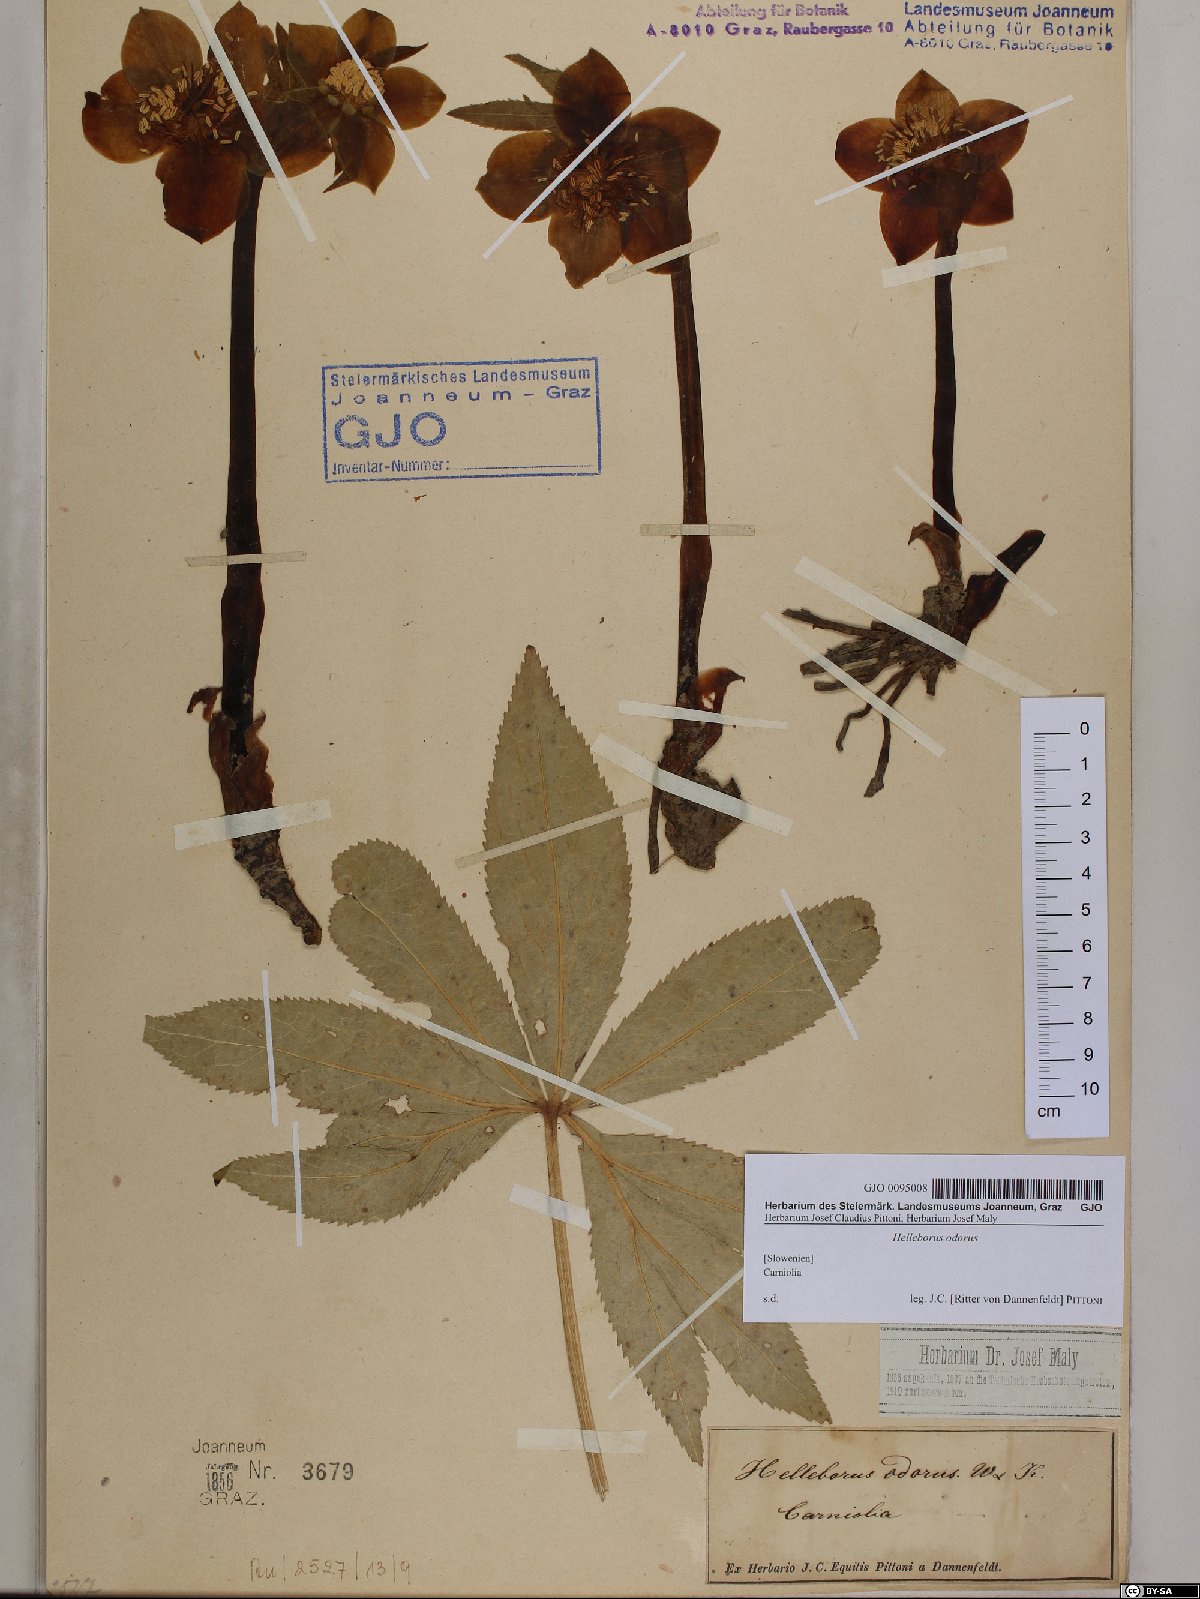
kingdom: Plantae
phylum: Tracheophyta
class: Magnoliopsida
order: Ranunculales
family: Ranunculaceae
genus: Helleborus
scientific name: Helleborus odorus
